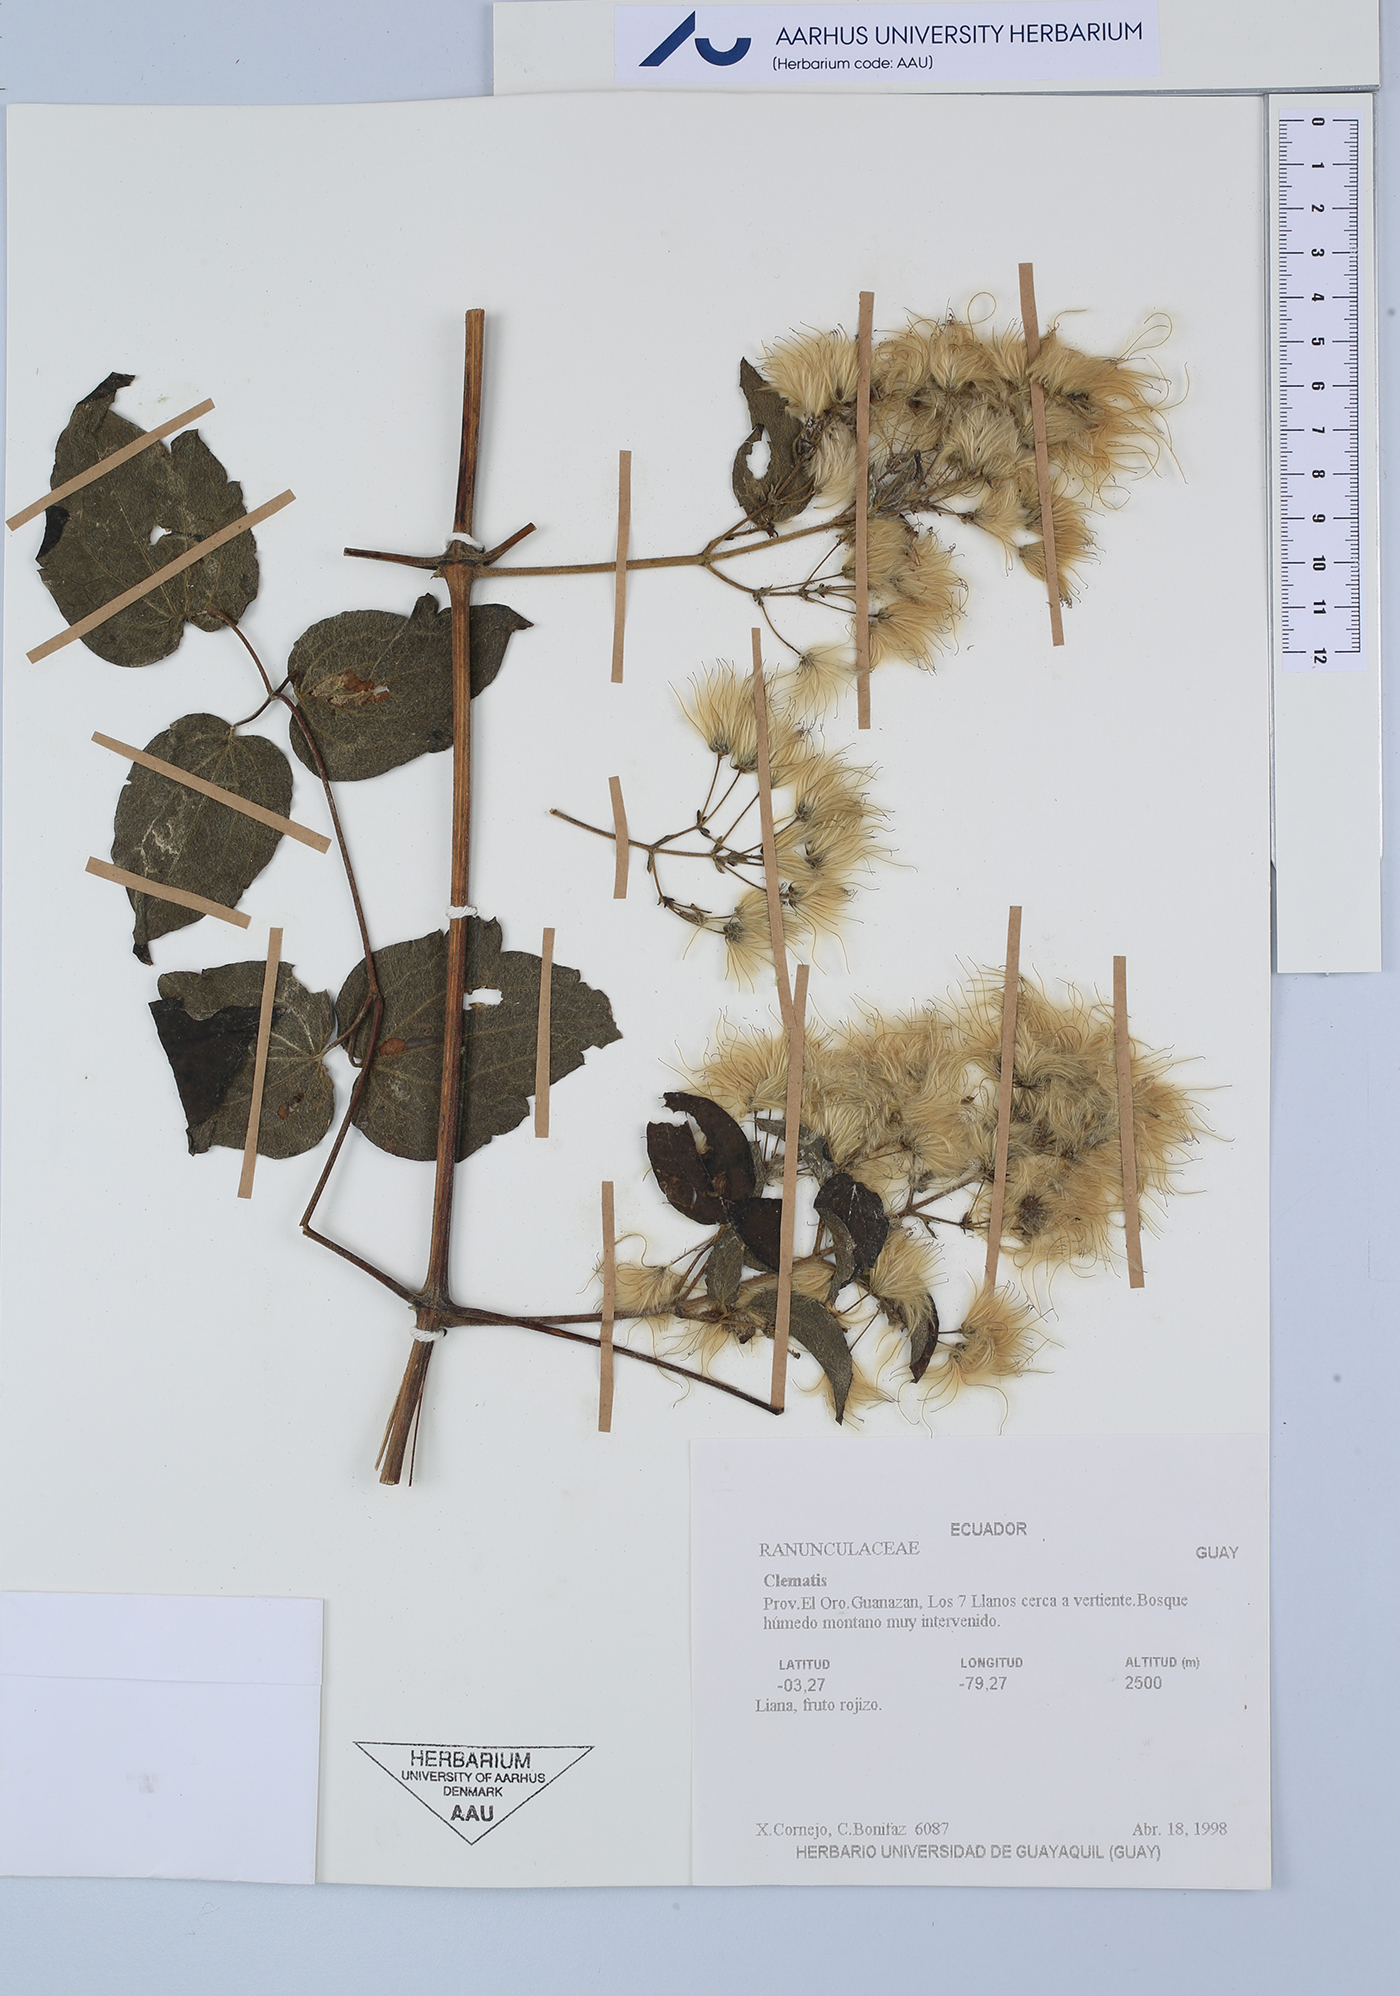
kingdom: Plantae
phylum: Tracheophyta
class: Magnoliopsida
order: Ranunculales
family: Ranunculaceae
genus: Clematis
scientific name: Clematis
